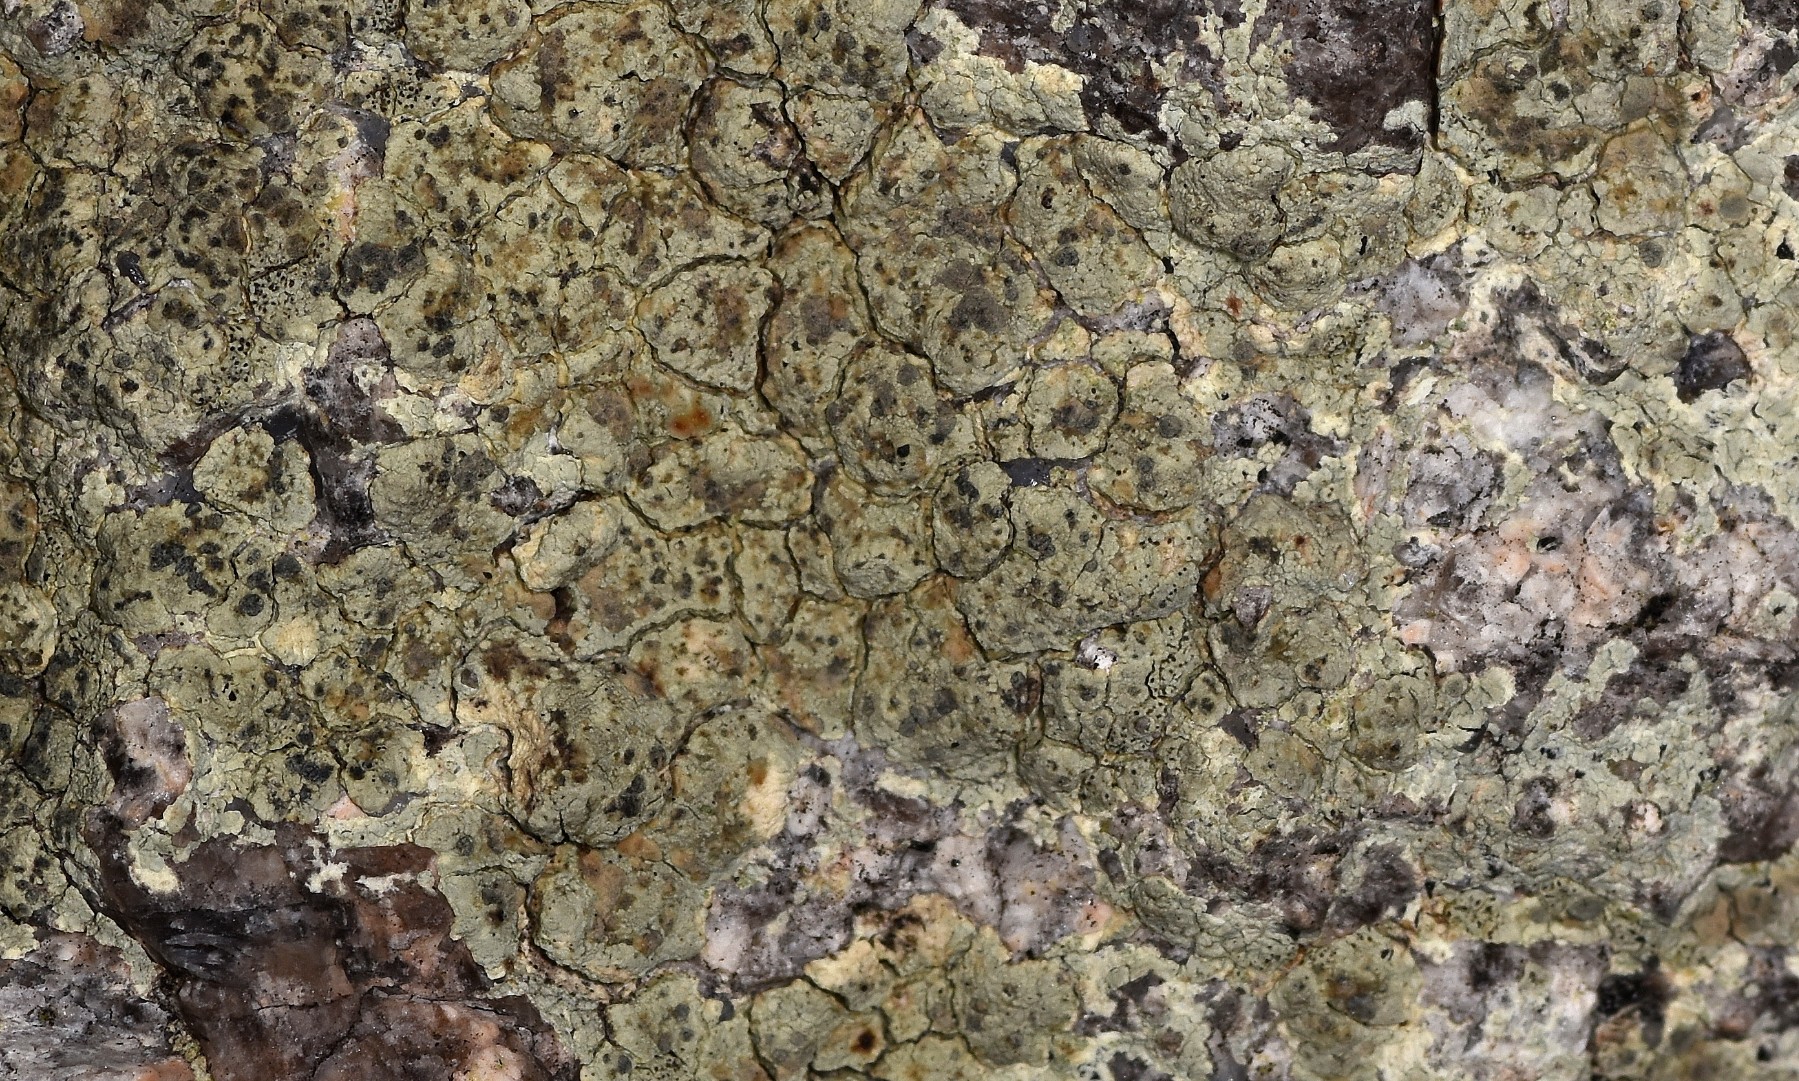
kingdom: Fungi
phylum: Ascomycota
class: Lecanoromycetes
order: Lecanorales
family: Lecanoraceae
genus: Glaucomaria
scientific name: Glaucomaria sulphurea
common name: svovlgul kantskivelav
